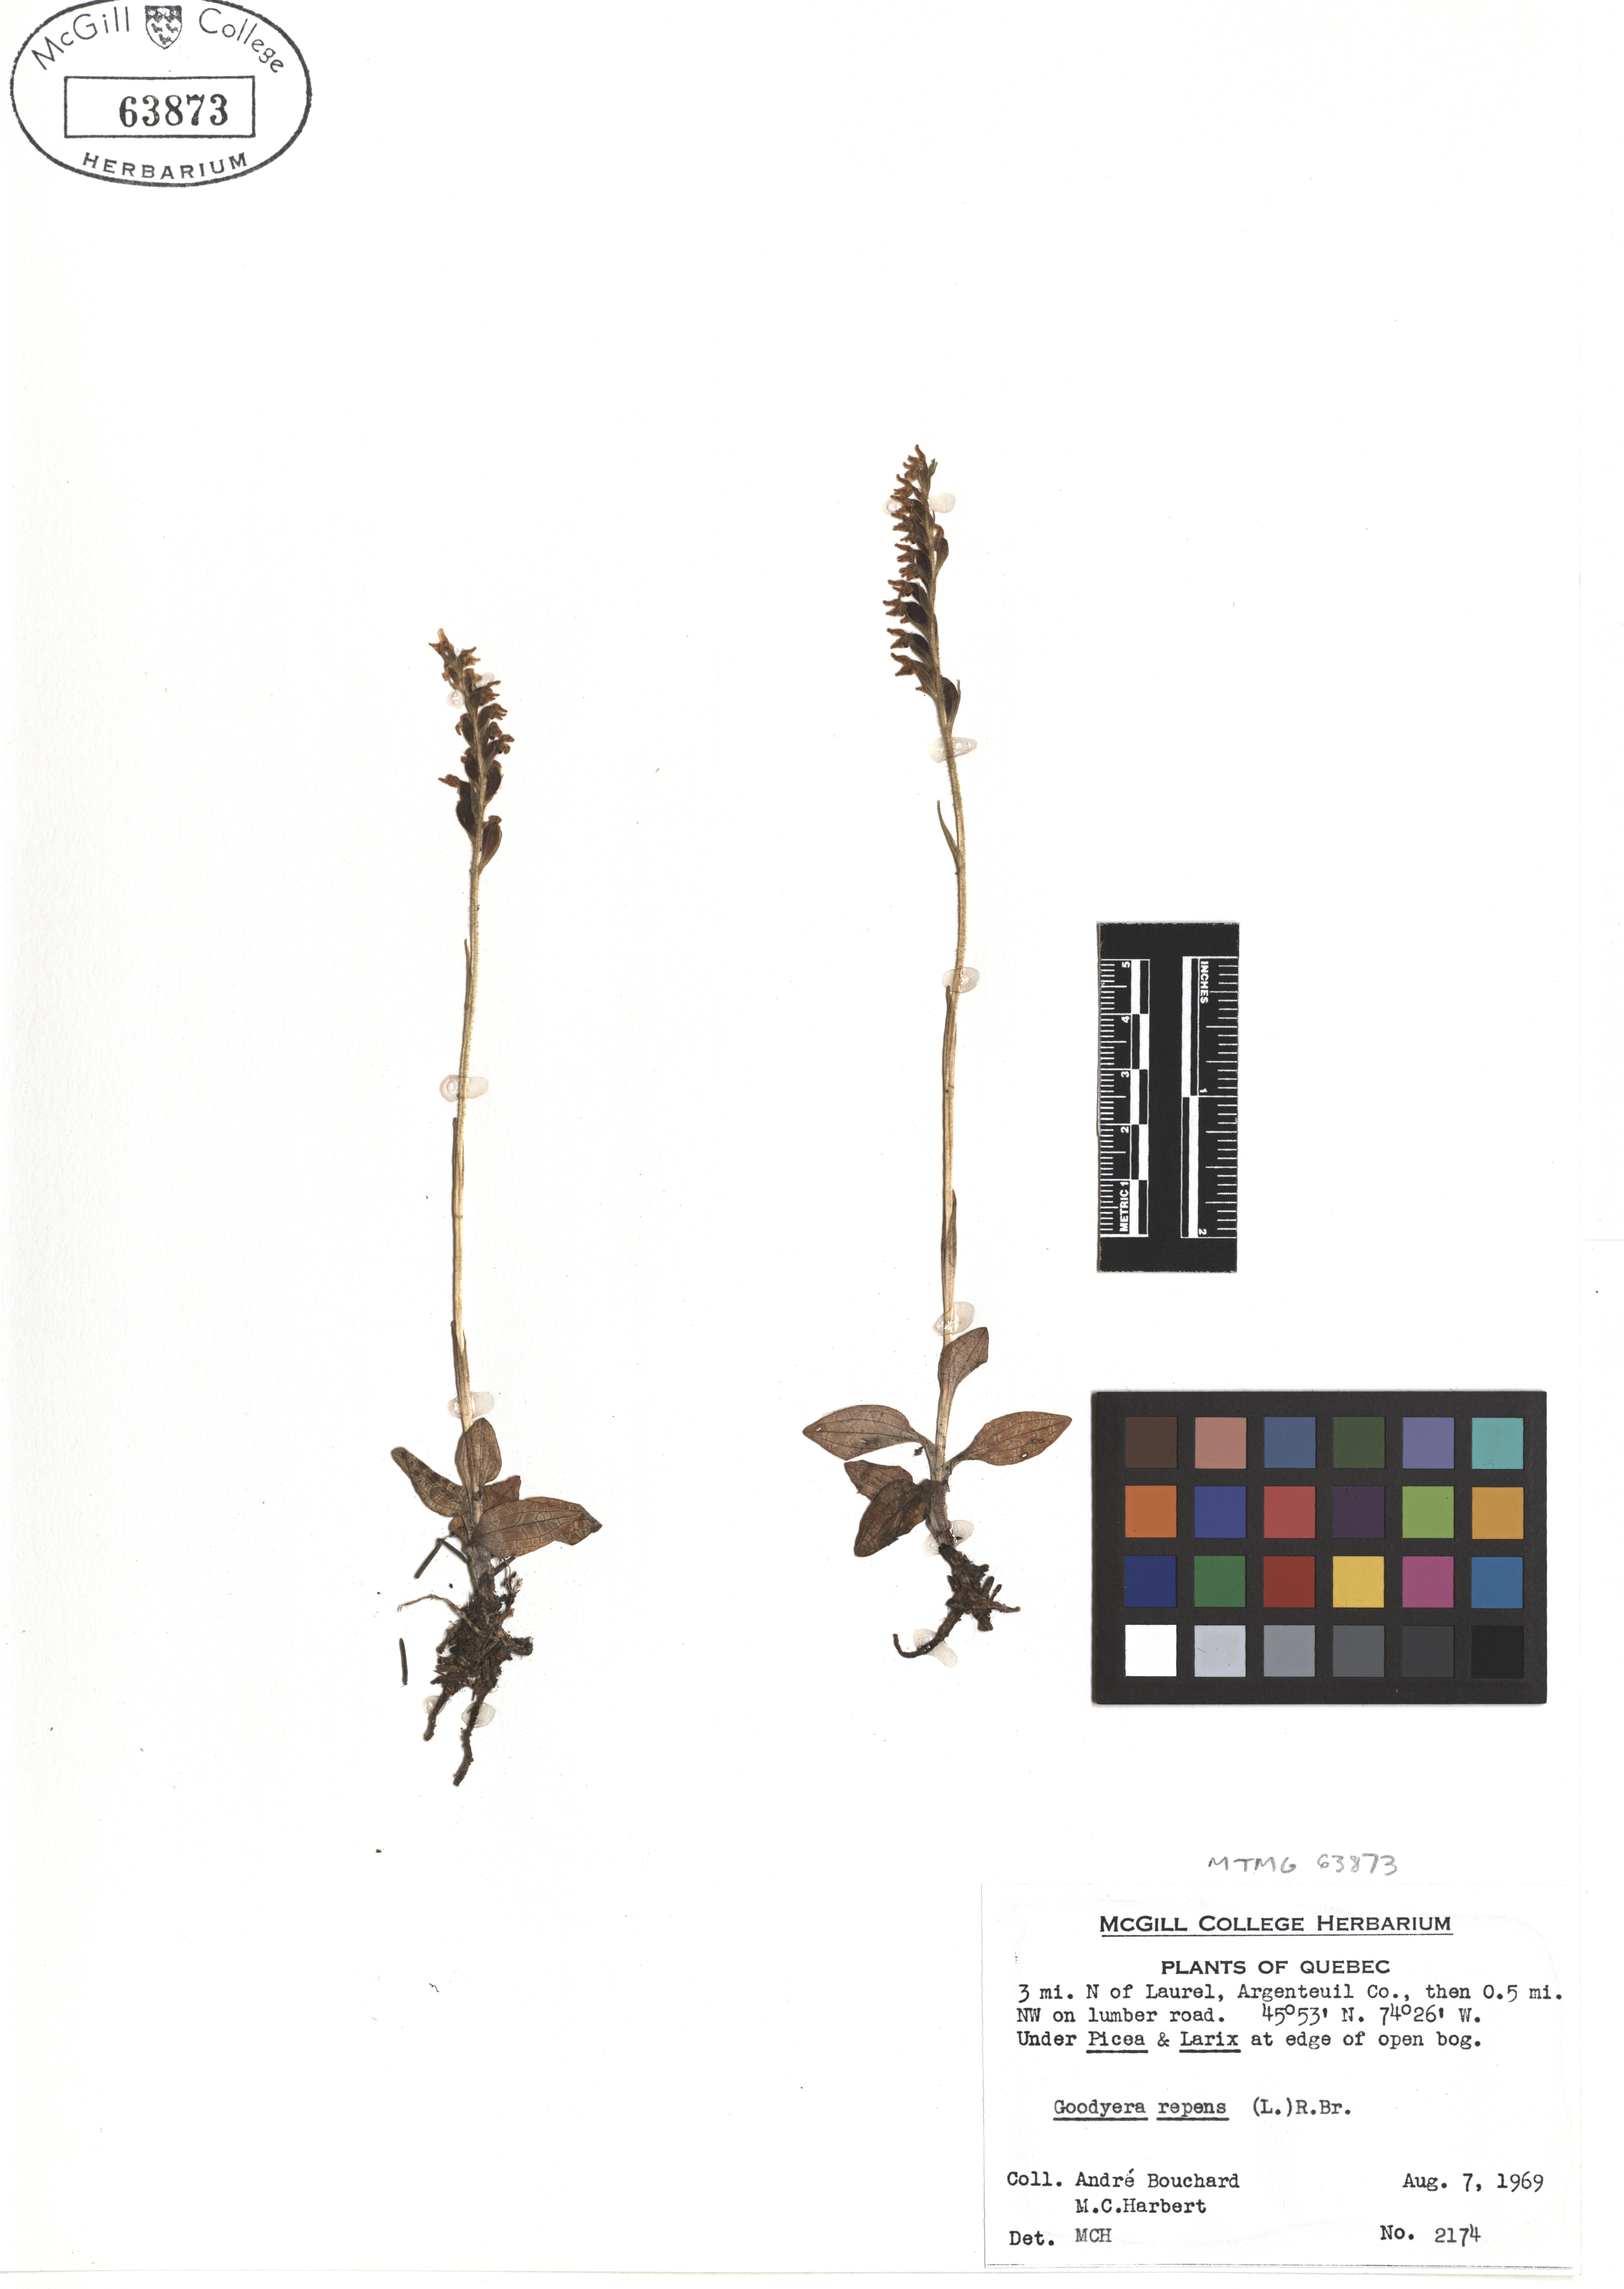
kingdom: Plantae
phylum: Tracheophyta
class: Liliopsida
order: Asparagales
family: Orchidaceae
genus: Goodyera
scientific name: Goodyera repens
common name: Creeping lady's-tresses
